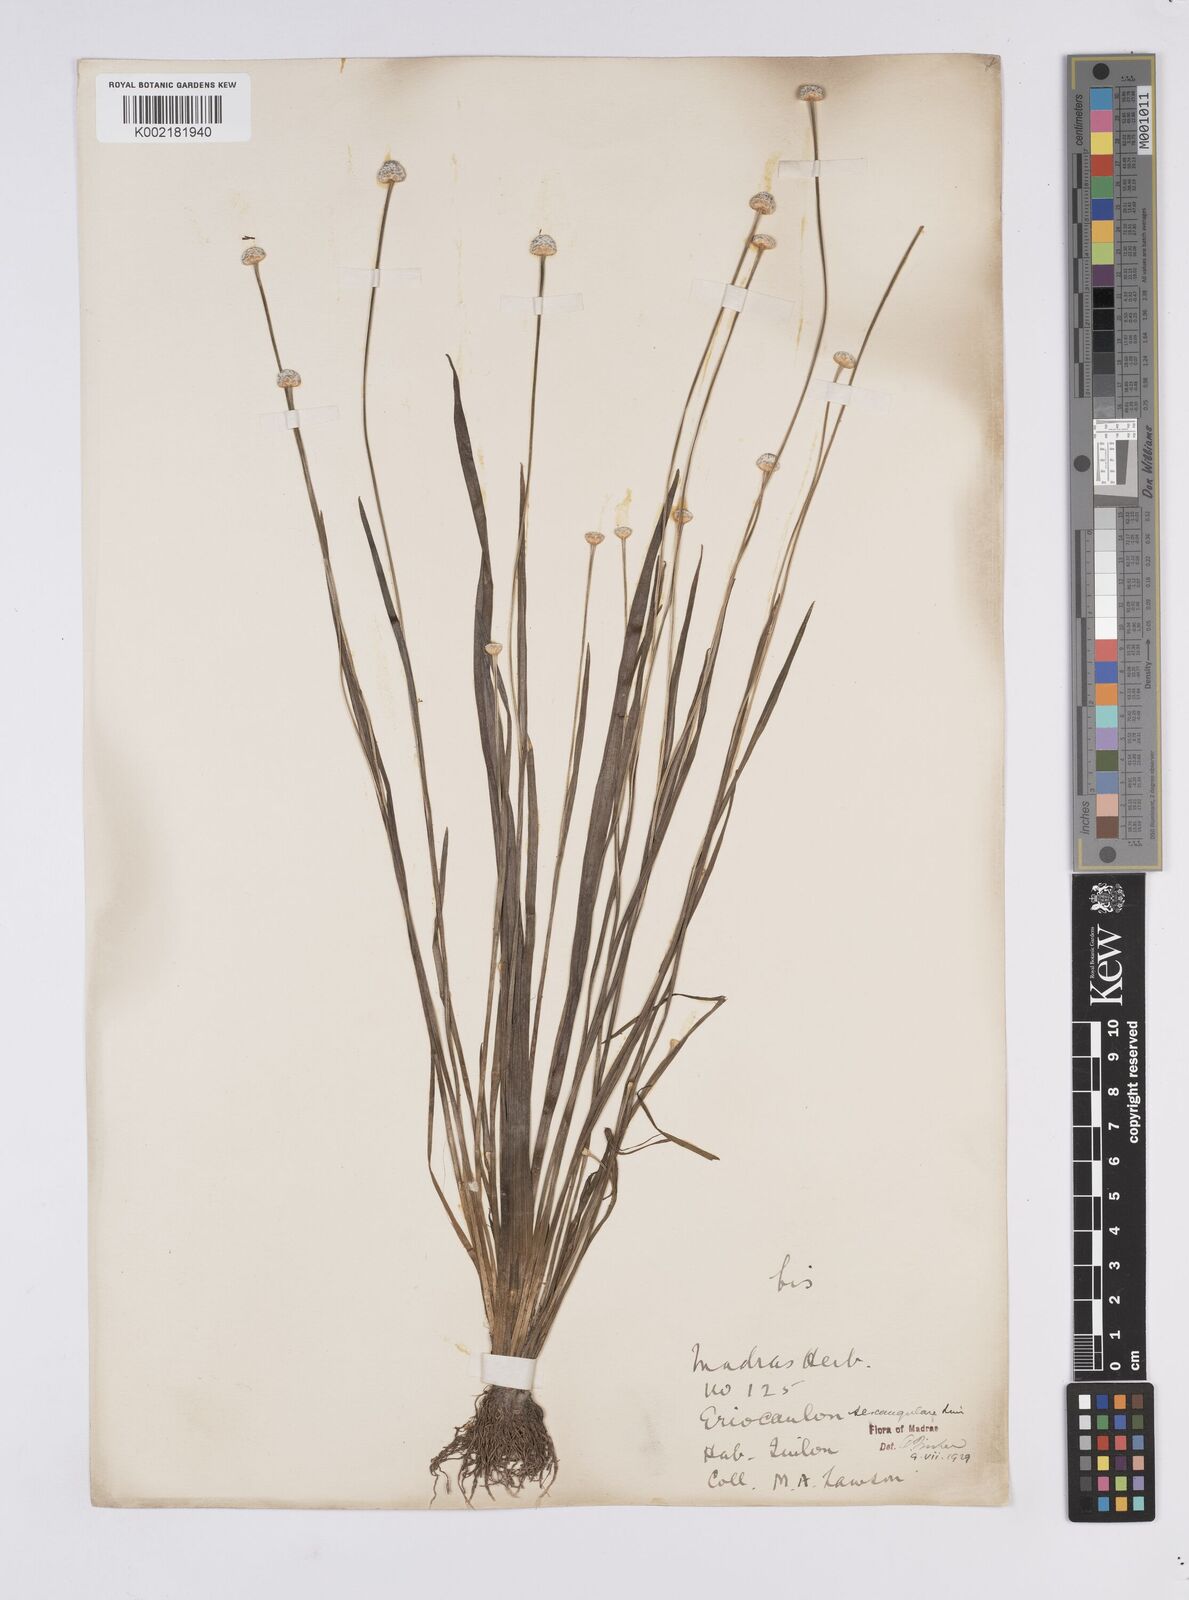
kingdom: Plantae
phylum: Tracheophyta
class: Liliopsida
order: Poales
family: Eriocaulaceae
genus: Eriocaulon
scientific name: Eriocaulon sexangulare
